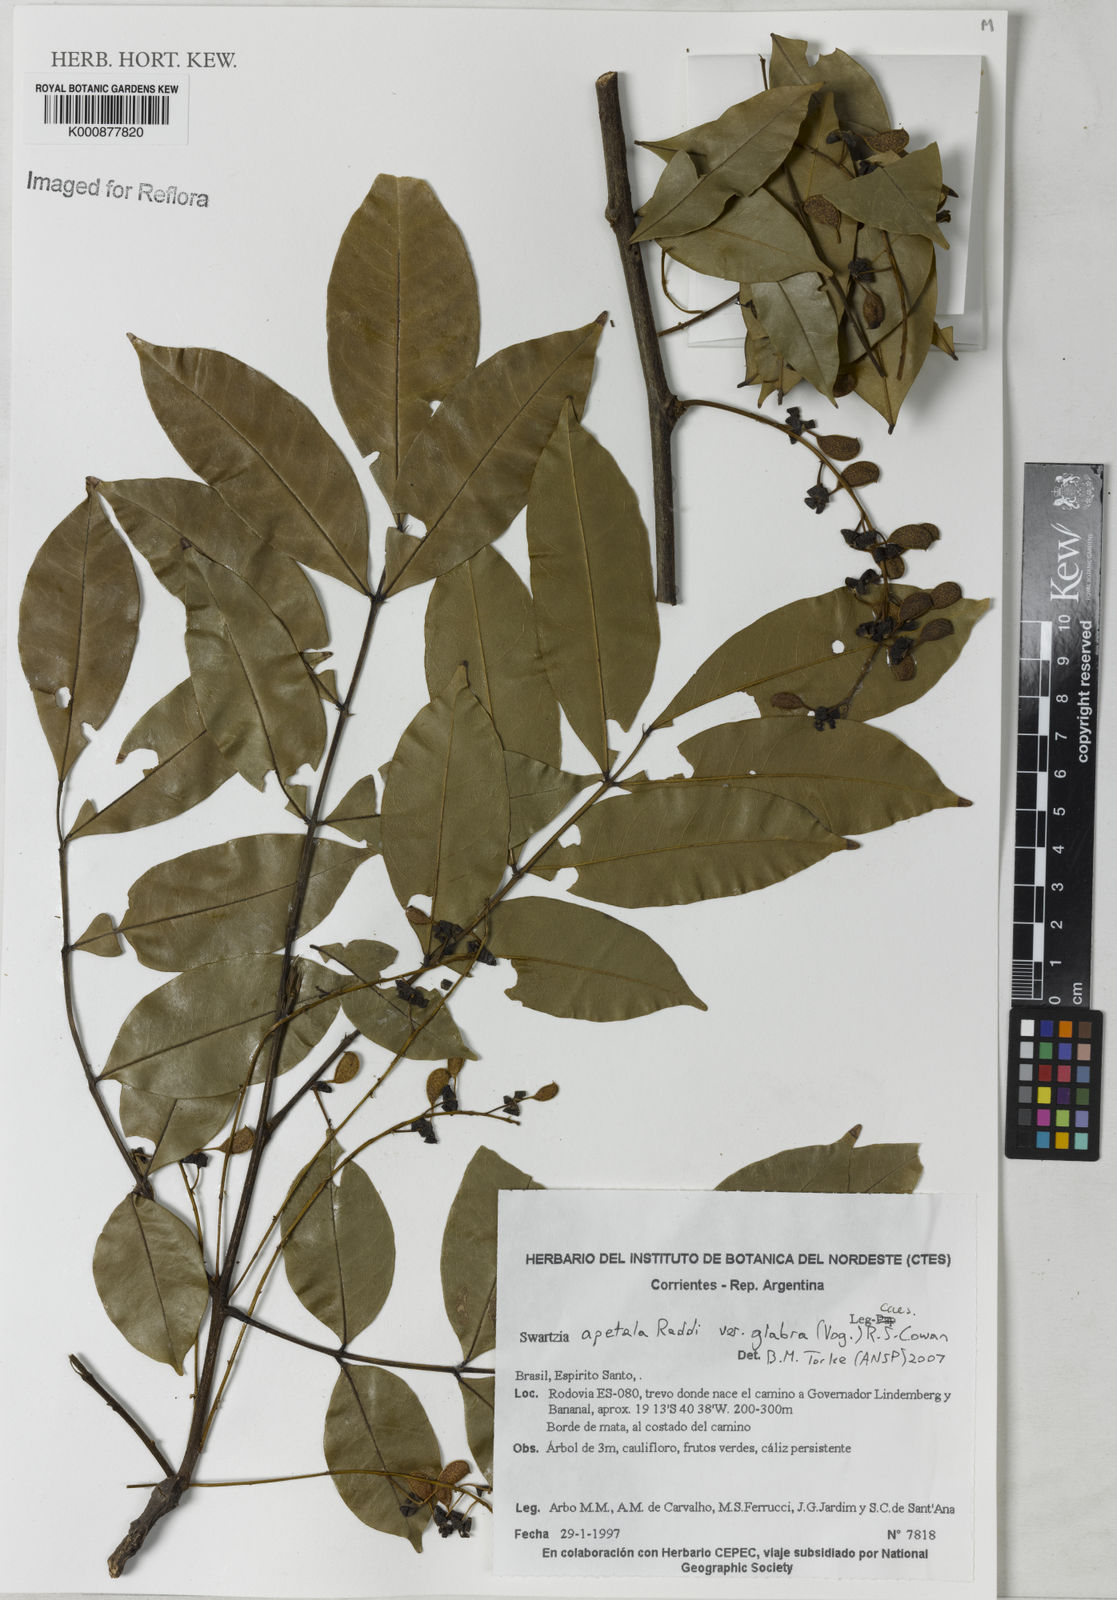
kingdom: Plantae
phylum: Tracheophyta
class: Magnoliopsida
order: Fabales
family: Fabaceae
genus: Swartzia
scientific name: Swartzia apetala
